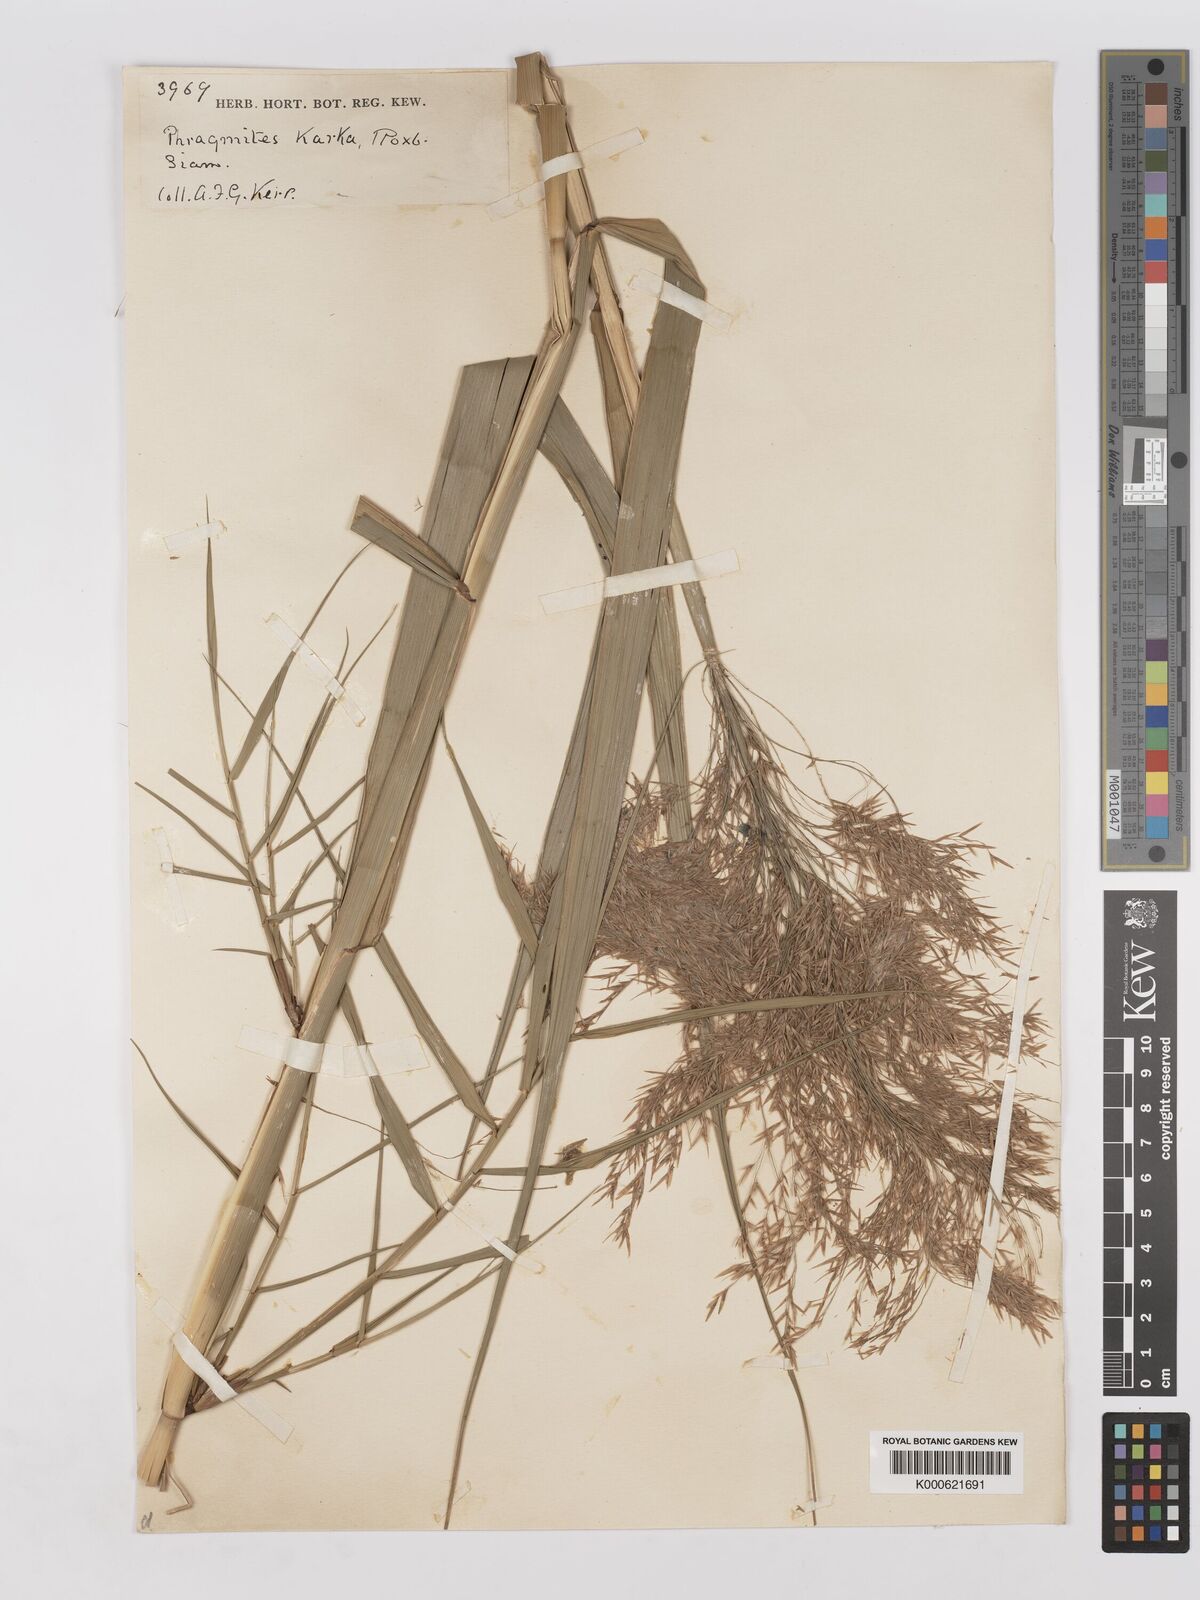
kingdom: Plantae
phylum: Tracheophyta
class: Liliopsida
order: Poales
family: Poaceae
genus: Phragmites
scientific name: Phragmites karka
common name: Tropical reed
